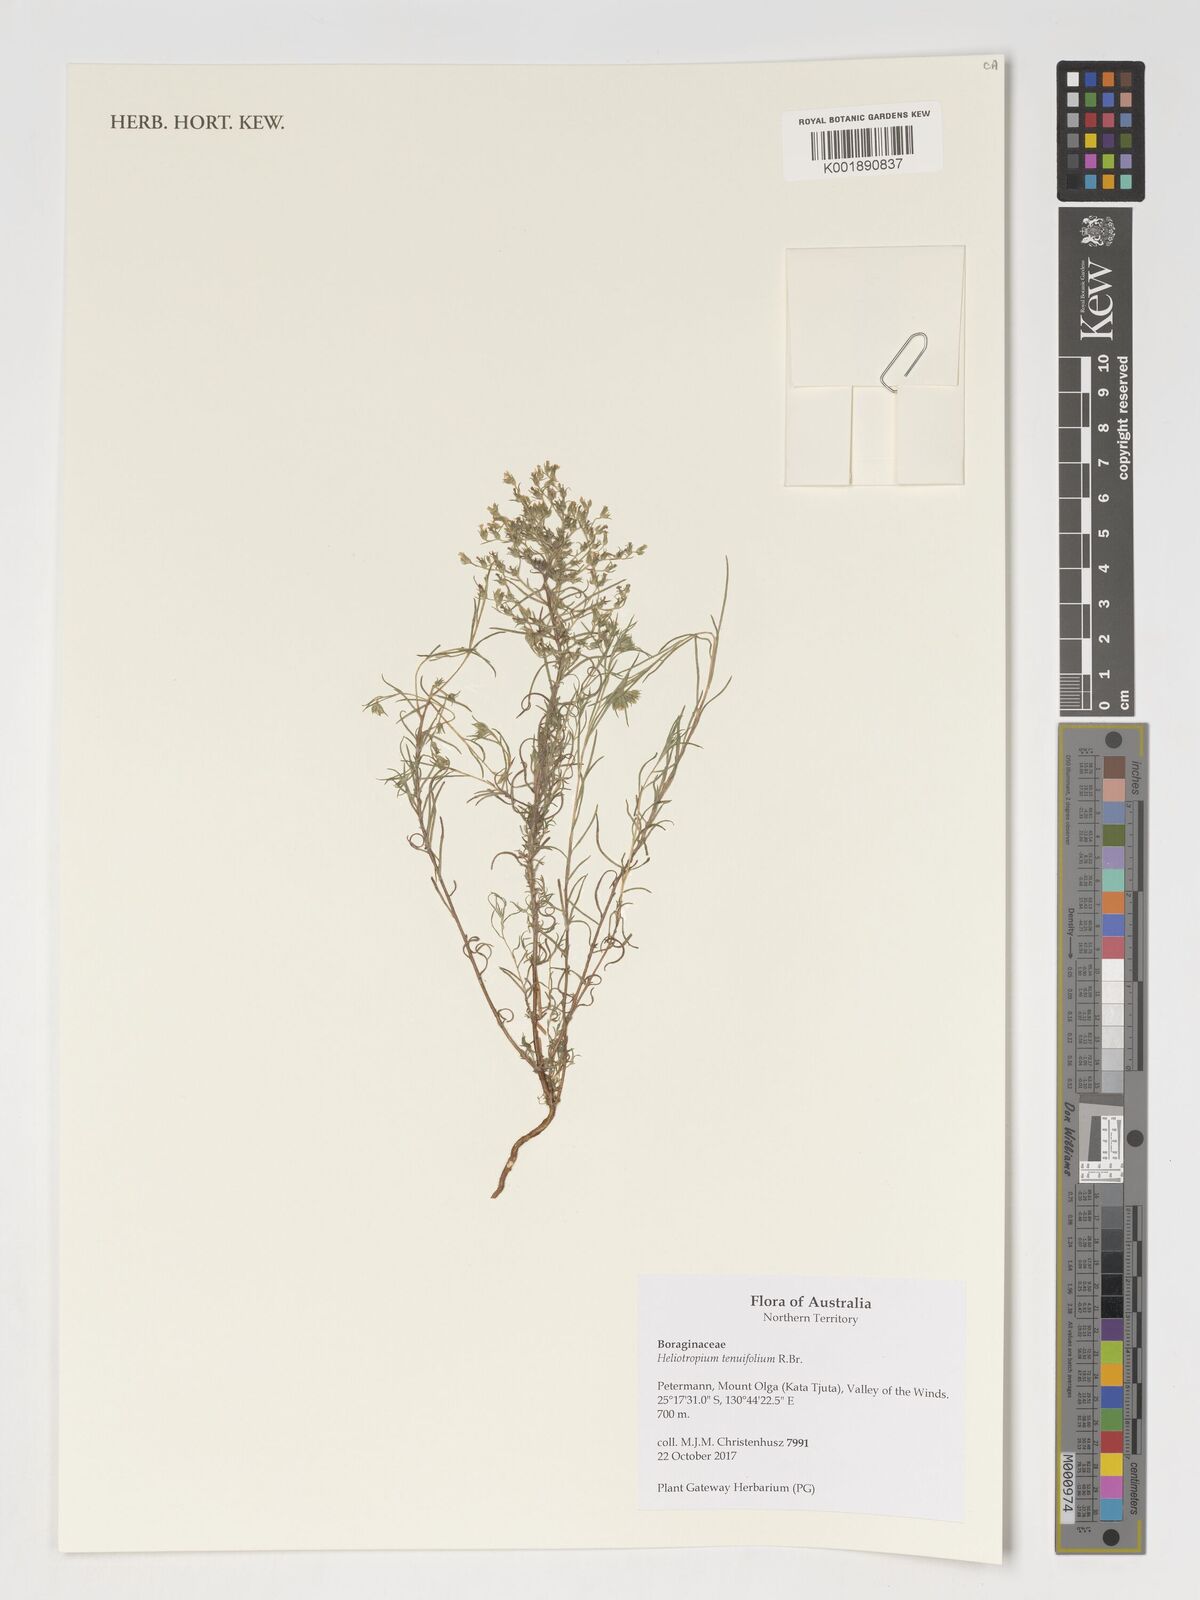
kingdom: Plantae
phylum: Tracheophyta
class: Magnoliopsida
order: Boraginales
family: Heliotropiaceae
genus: Heliotropium
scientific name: Heliotropium
